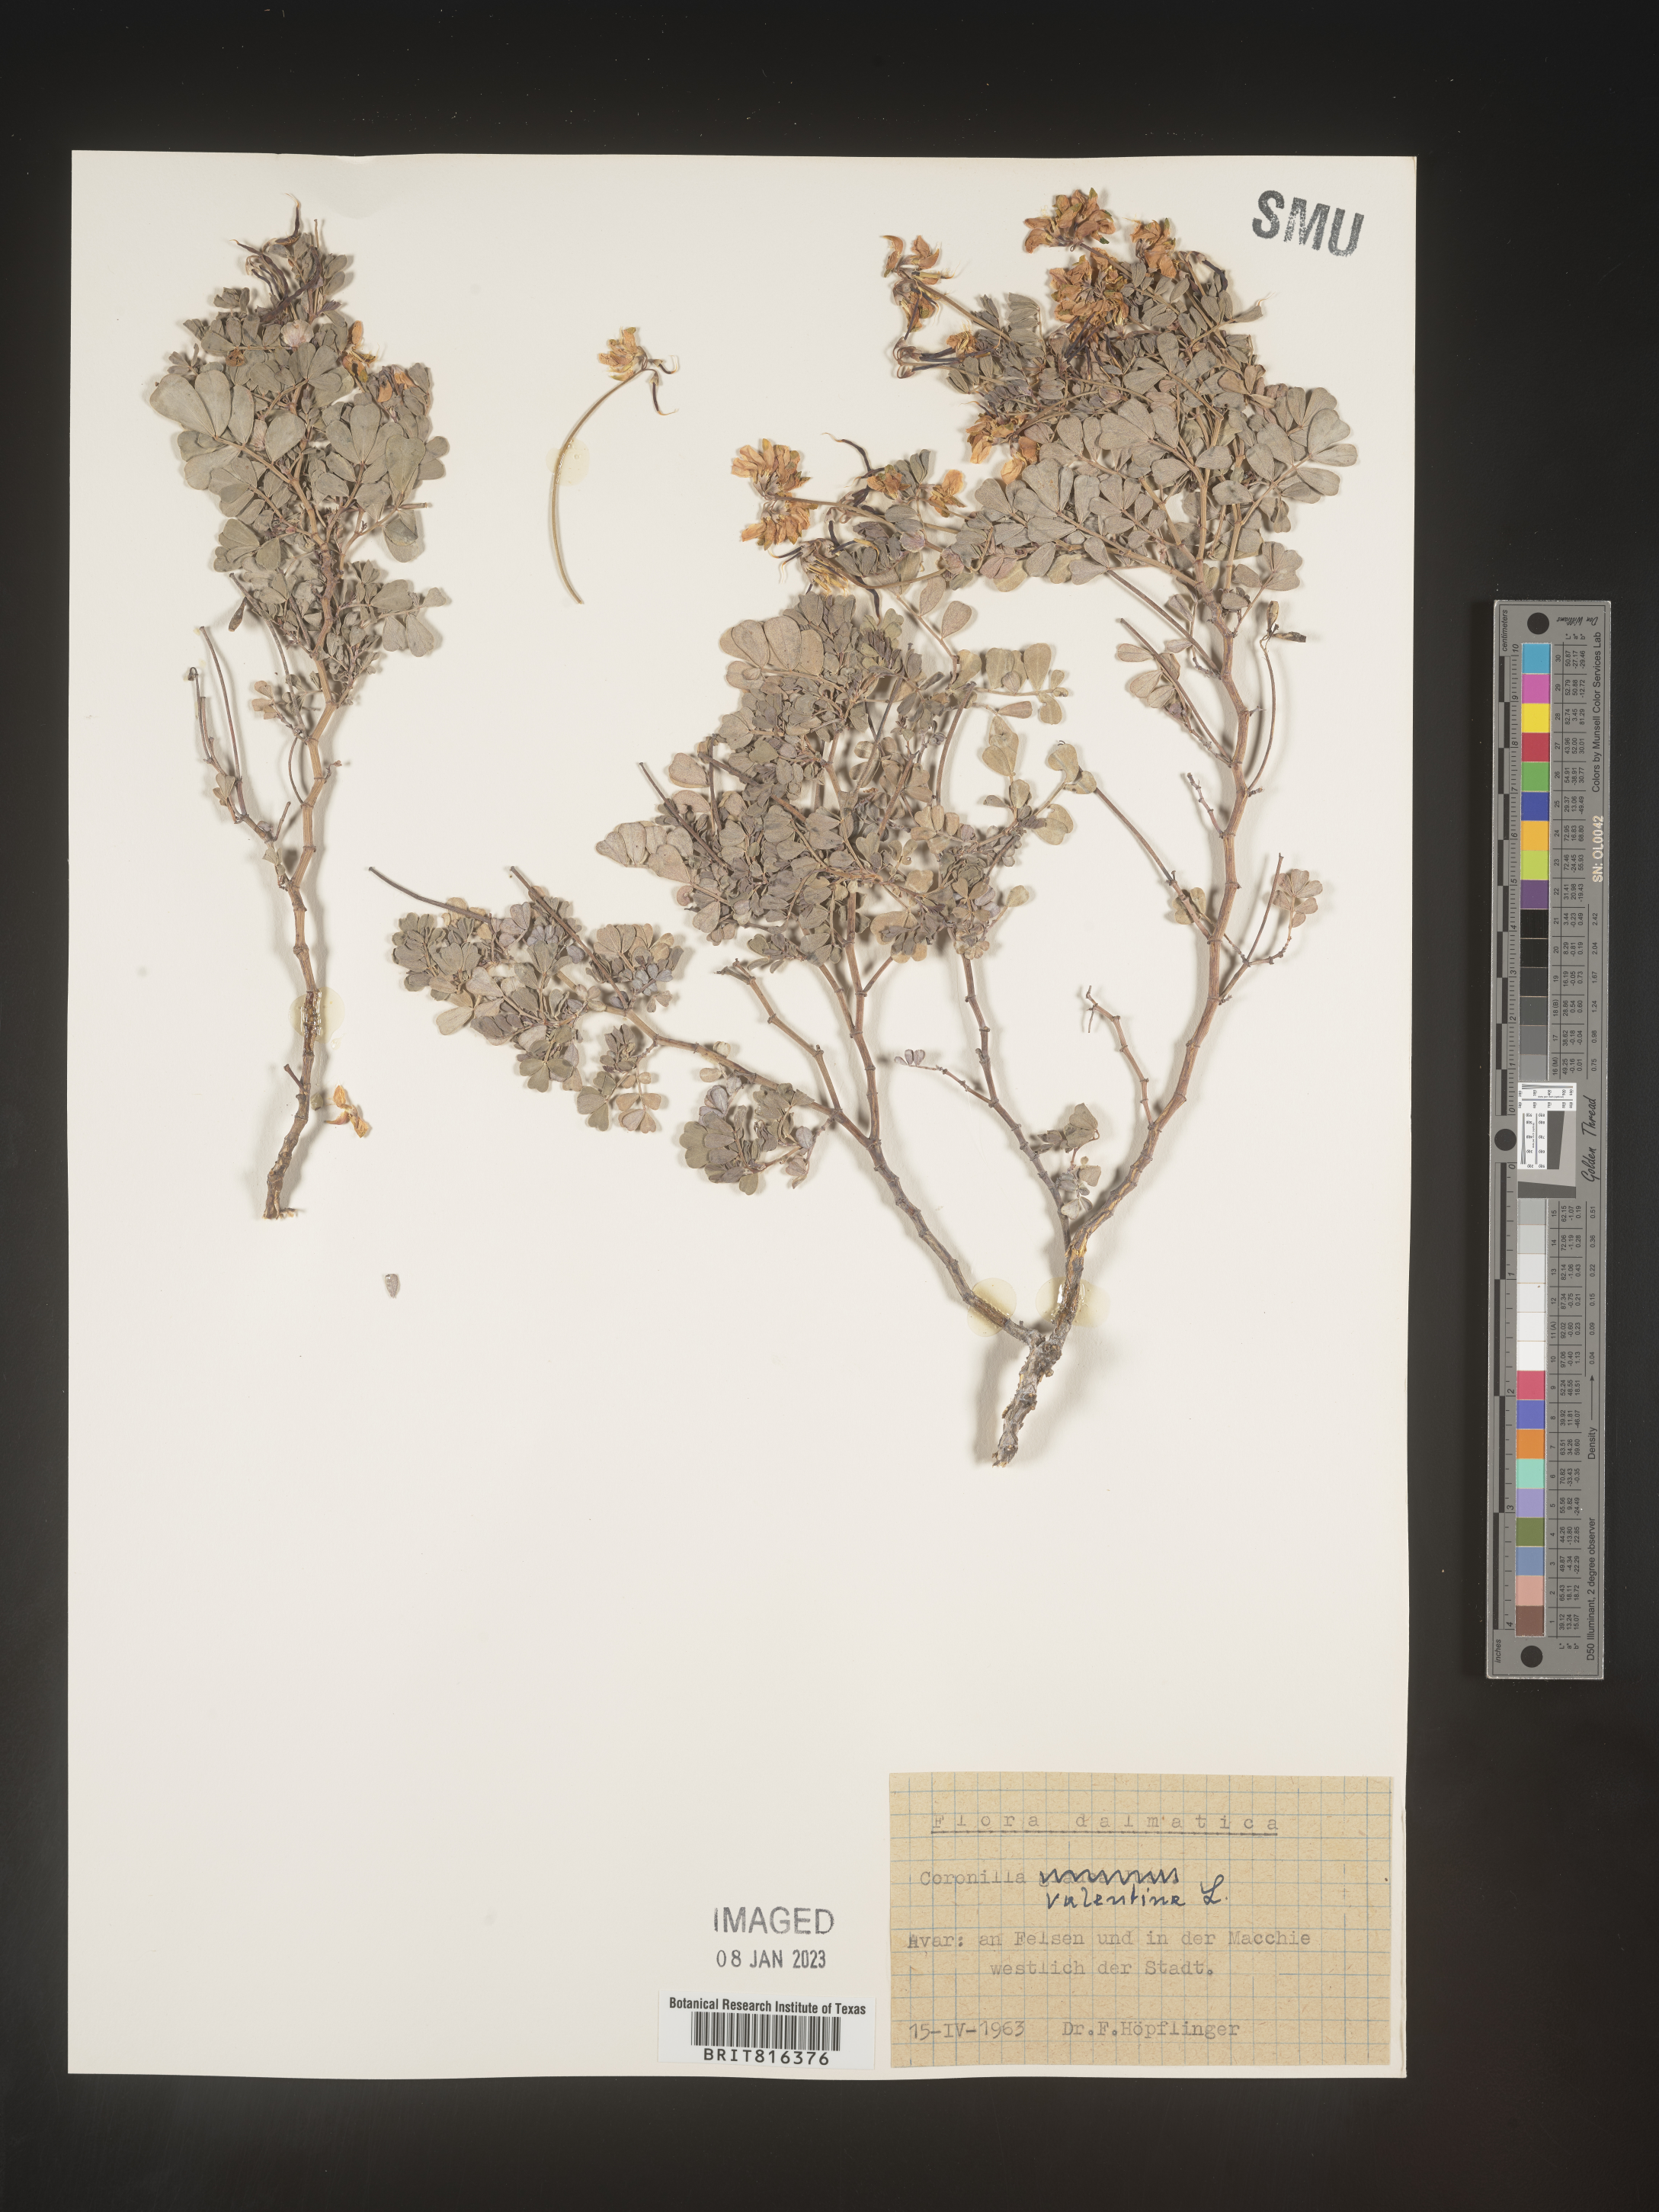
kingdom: Plantae
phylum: Tracheophyta
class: Magnoliopsida
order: Fabales
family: Fabaceae
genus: Coronilla
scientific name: Coronilla
